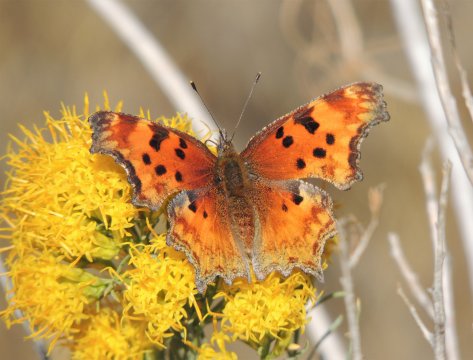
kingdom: Animalia
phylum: Arthropoda
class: Insecta
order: Lepidoptera
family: Nymphalidae
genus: Polygonia
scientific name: Polygonia gracilis
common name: Hoary Comma
